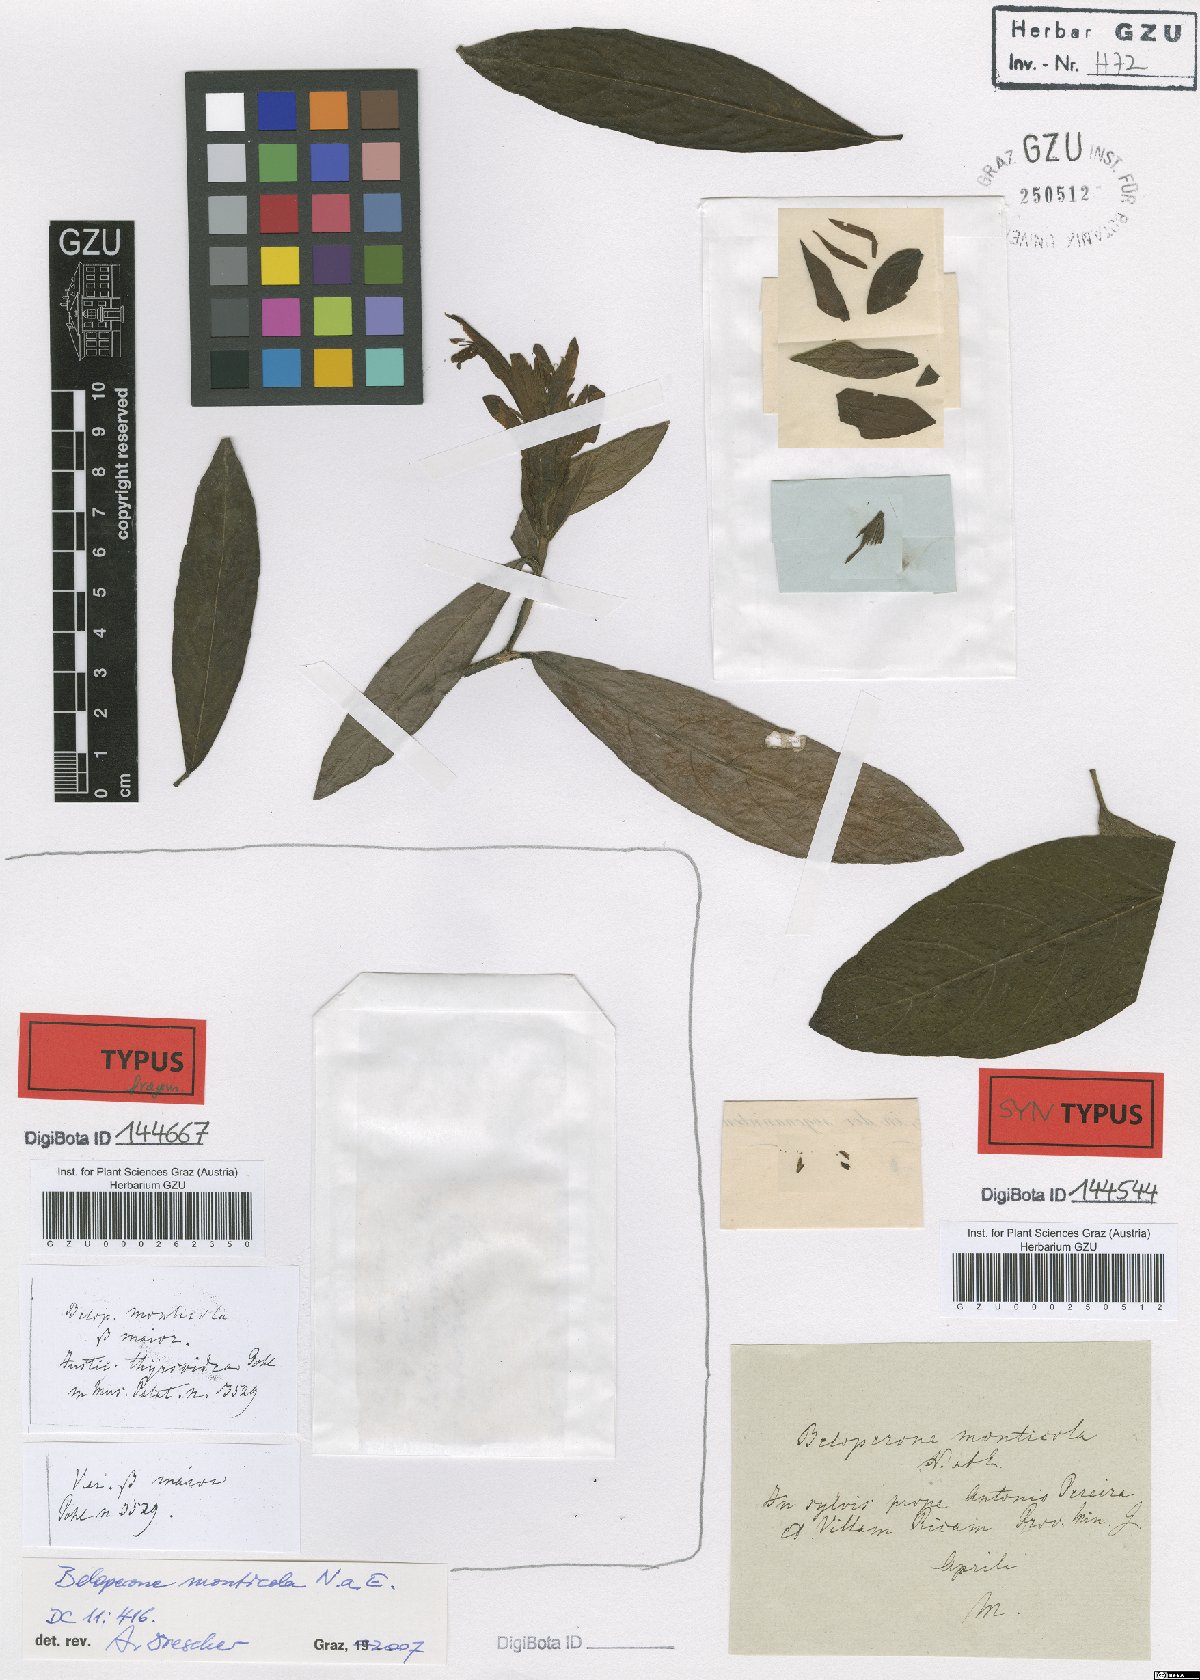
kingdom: Plantae
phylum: Tracheophyta
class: Magnoliopsida
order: Lamiales
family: Acanthaceae
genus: Lepidagathis
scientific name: Lepidagathis Lophostachys monticola
